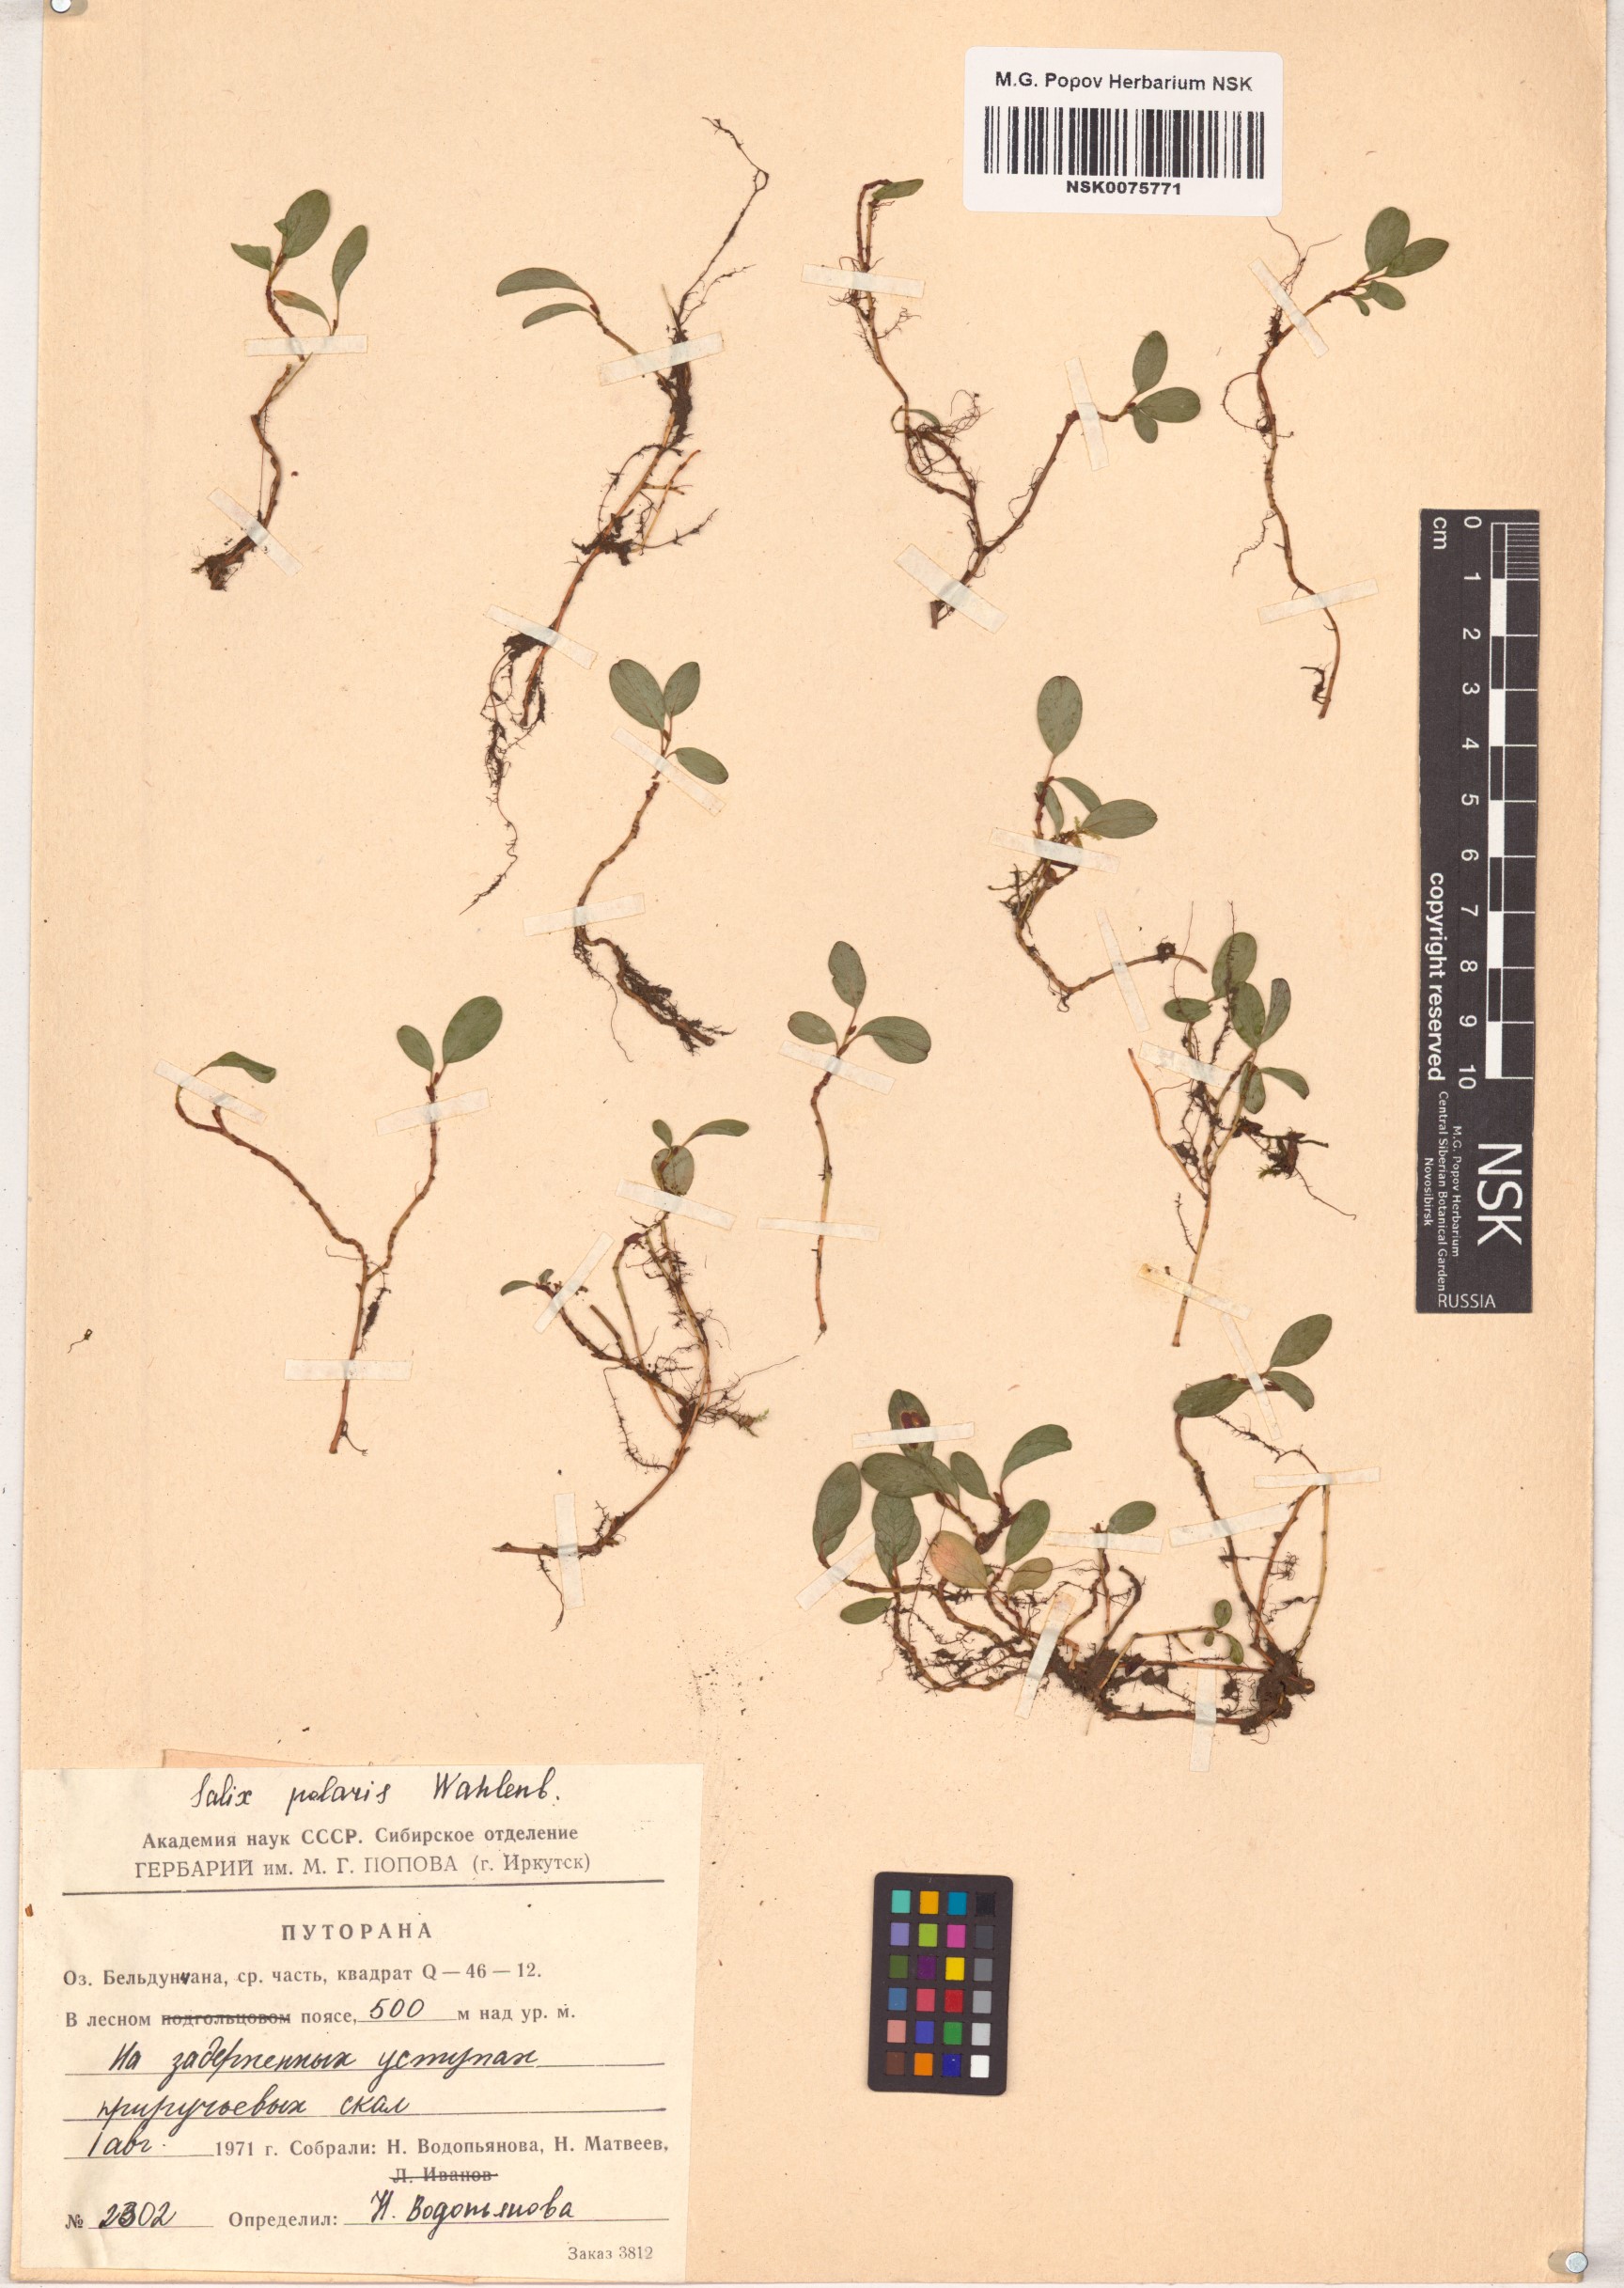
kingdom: Plantae
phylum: Tracheophyta
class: Magnoliopsida
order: Malpighiales
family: Salicaceae
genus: Salix
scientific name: Salix polaris
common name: Polar willow
